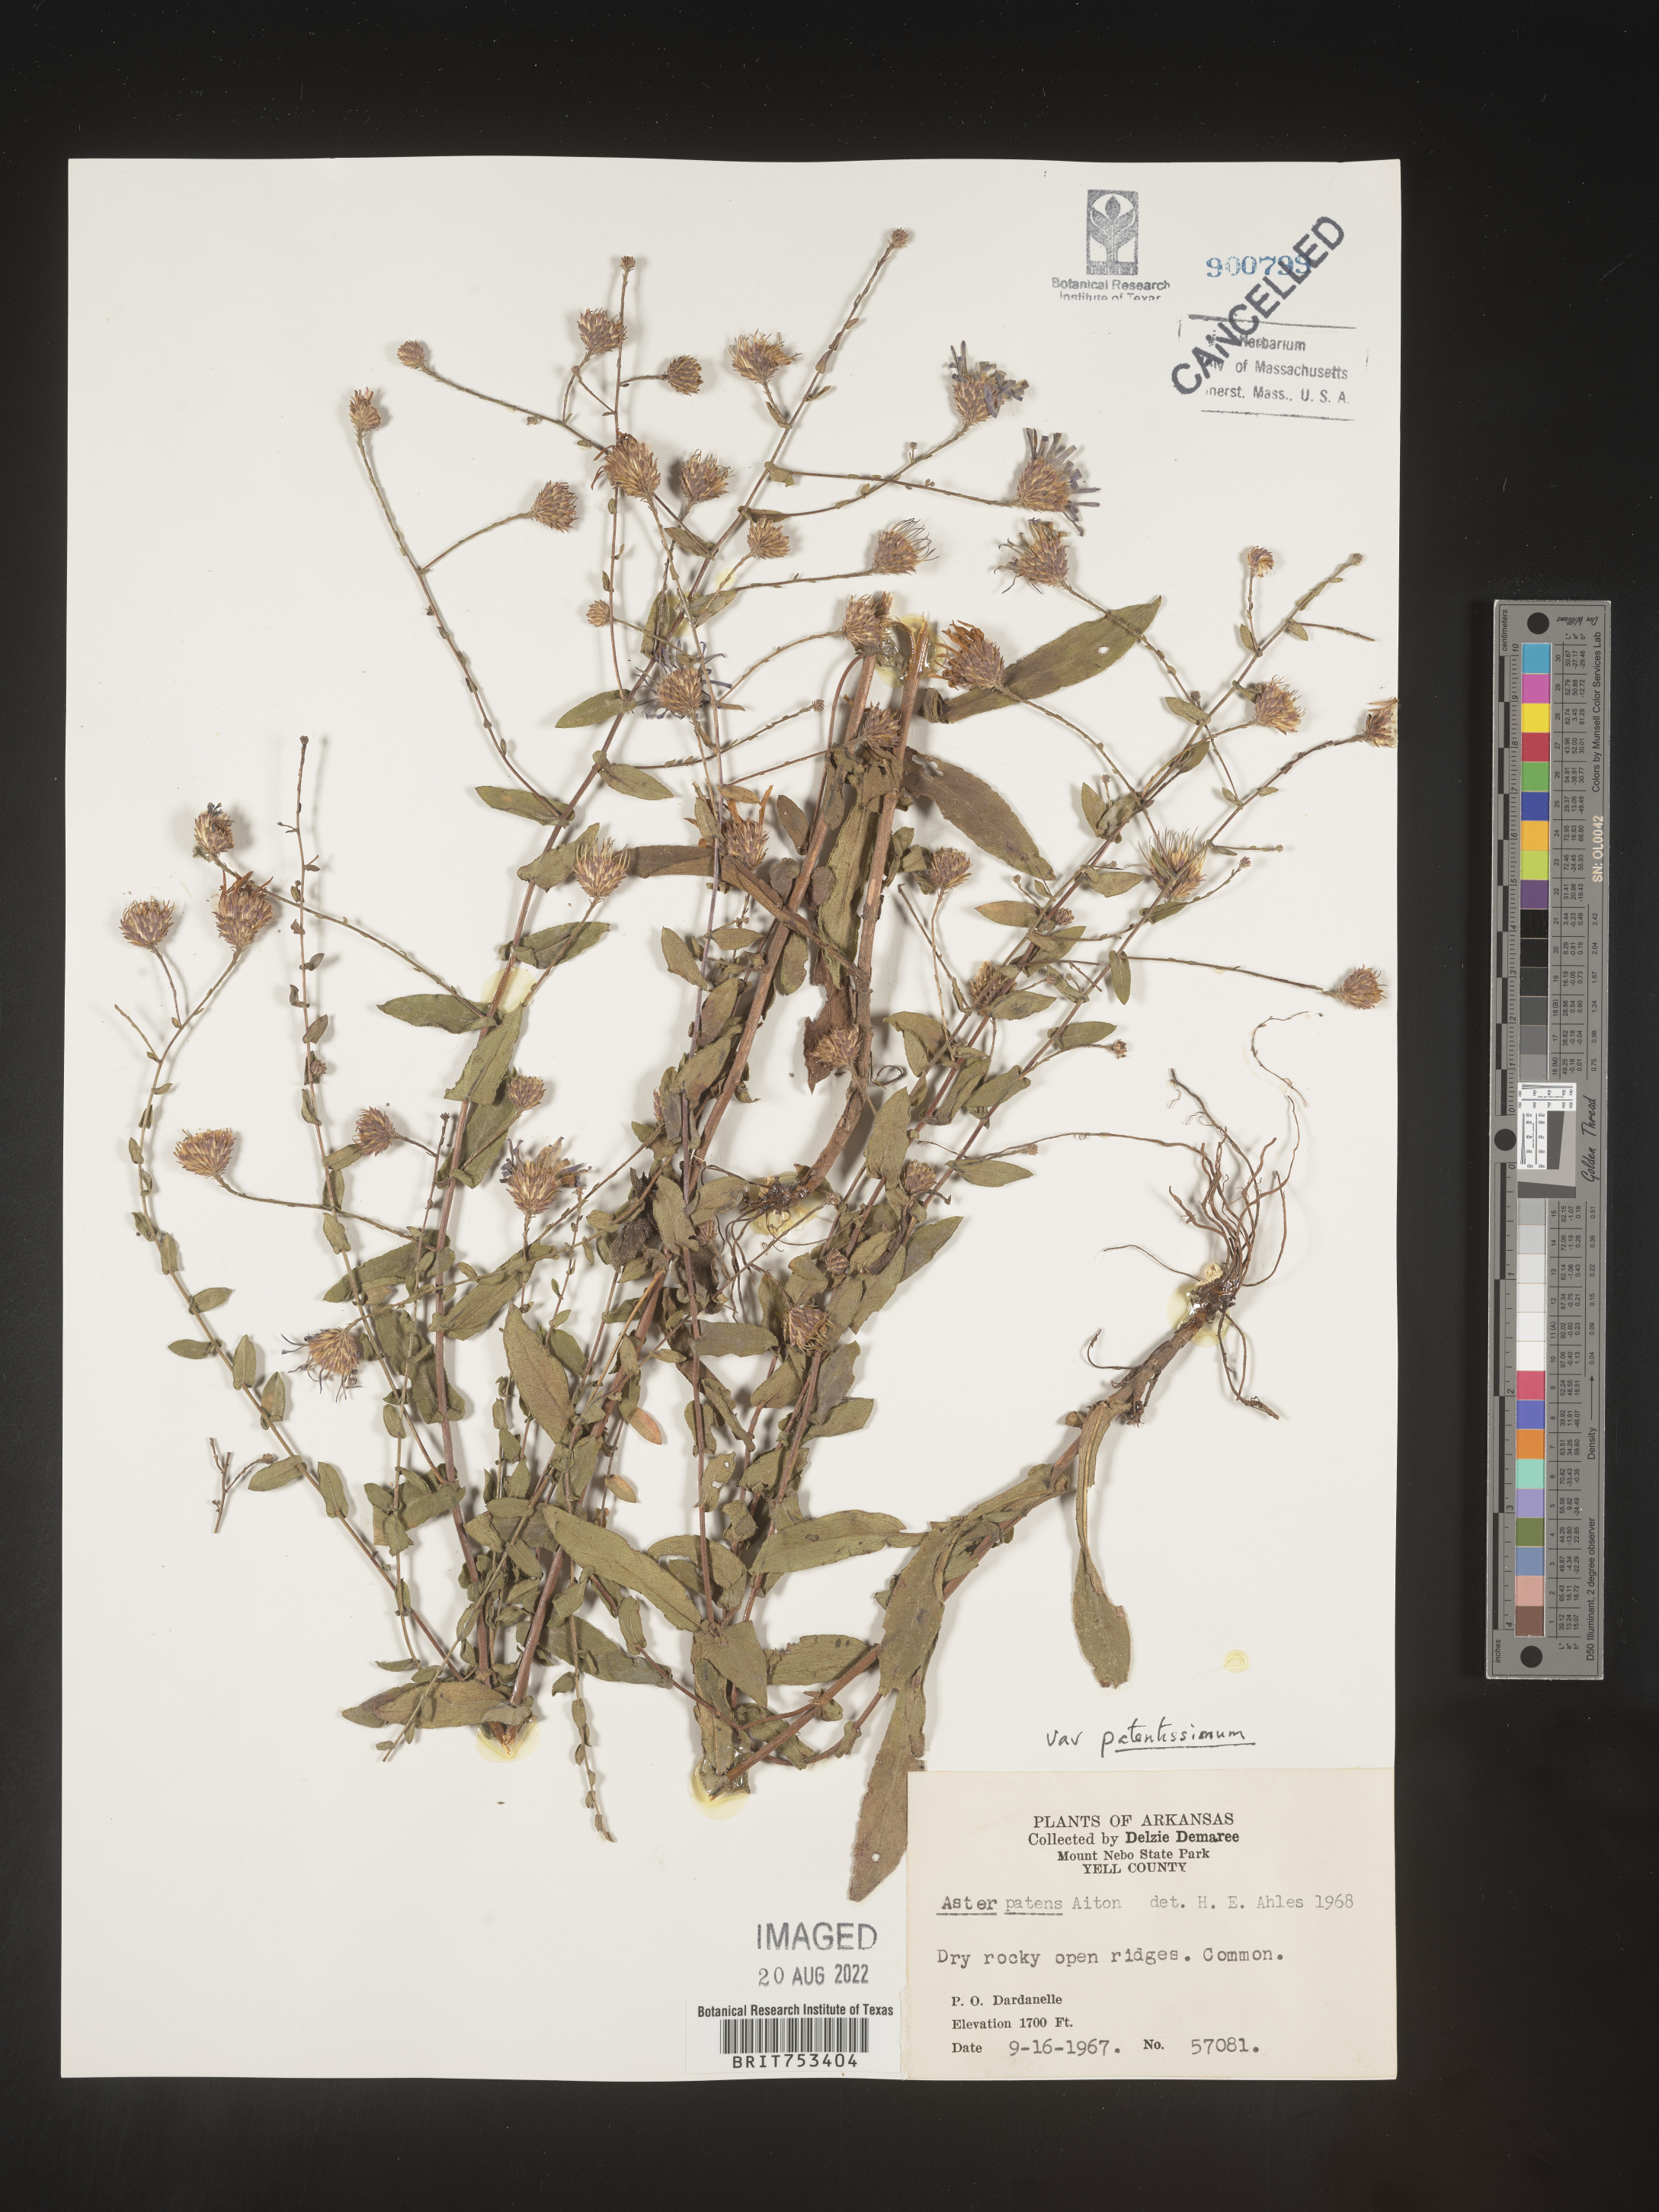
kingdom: Plantae
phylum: Tracheophyta
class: Magnoliopsida
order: Asterales
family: Asteraceae
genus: Symphyotrichum
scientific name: Symphyotrichum patens
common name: Late purple aster
